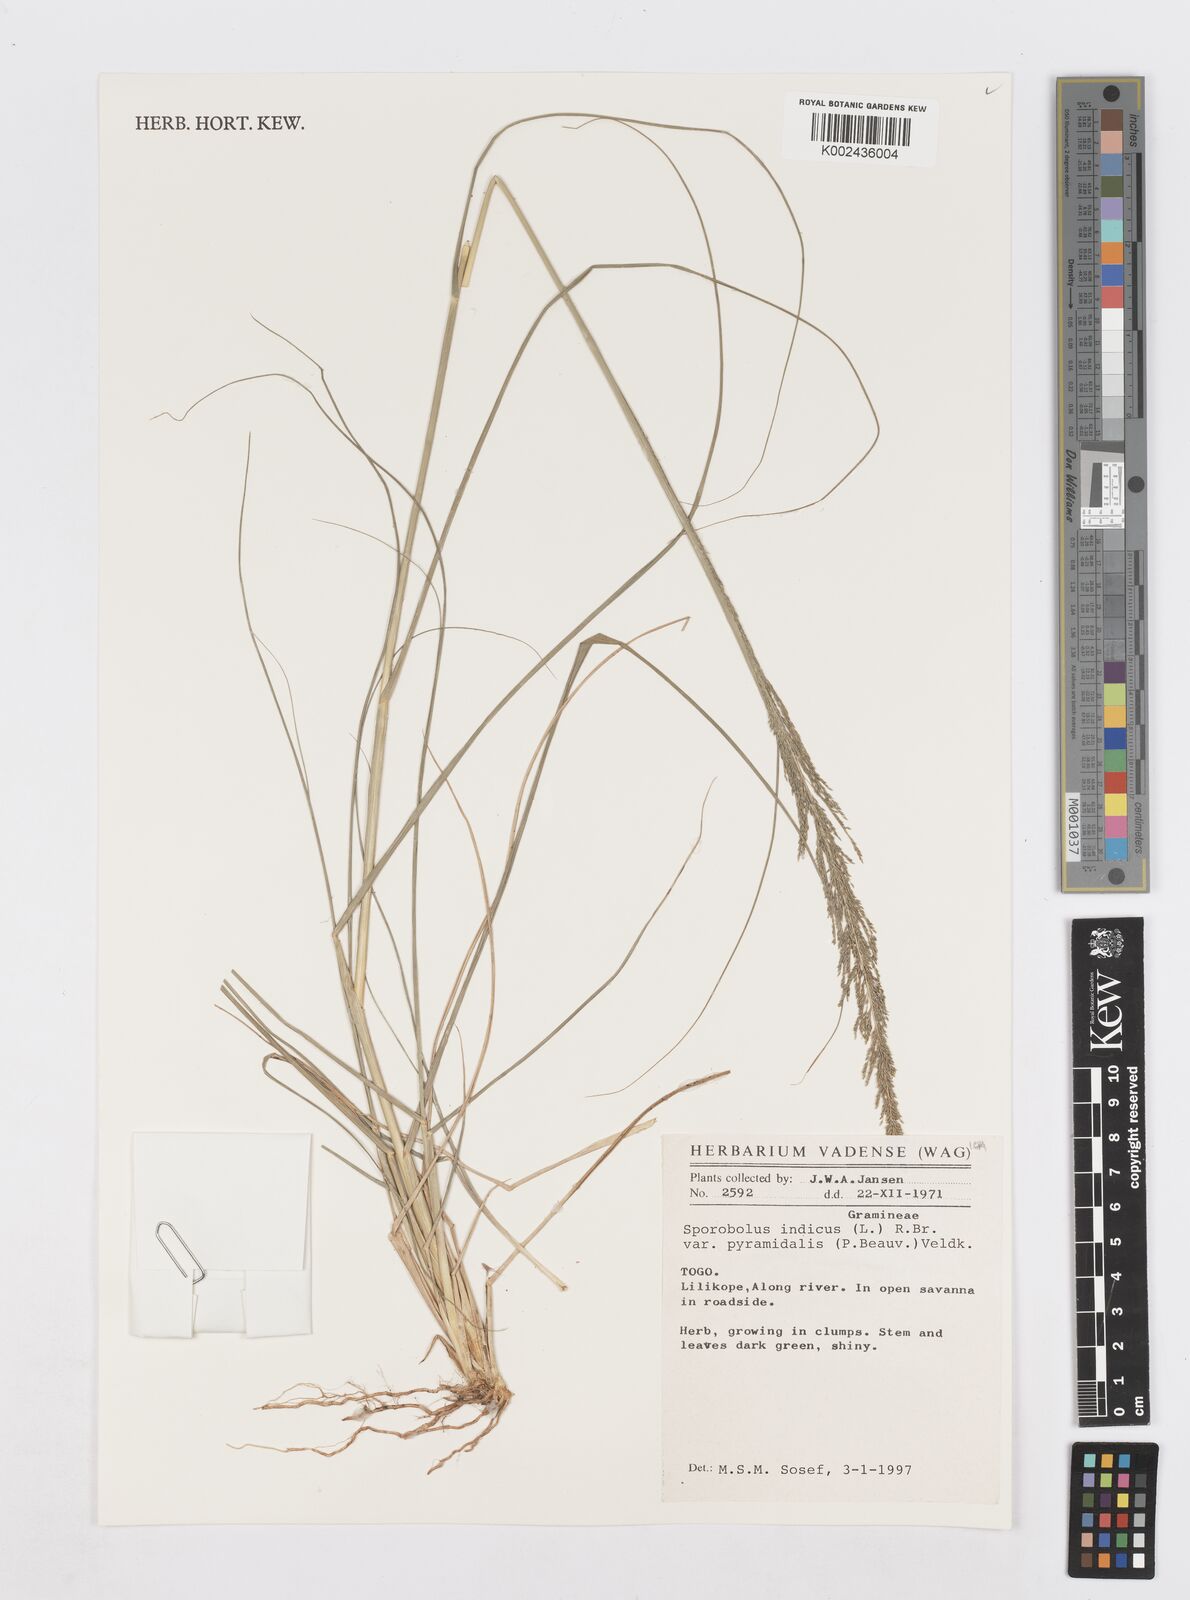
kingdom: Plantae
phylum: Tracheophyta
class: Liliopsida
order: Poales
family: Poaceae
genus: Sporobolus
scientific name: Sporobolus pyramidalis
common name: West indian dropseed
